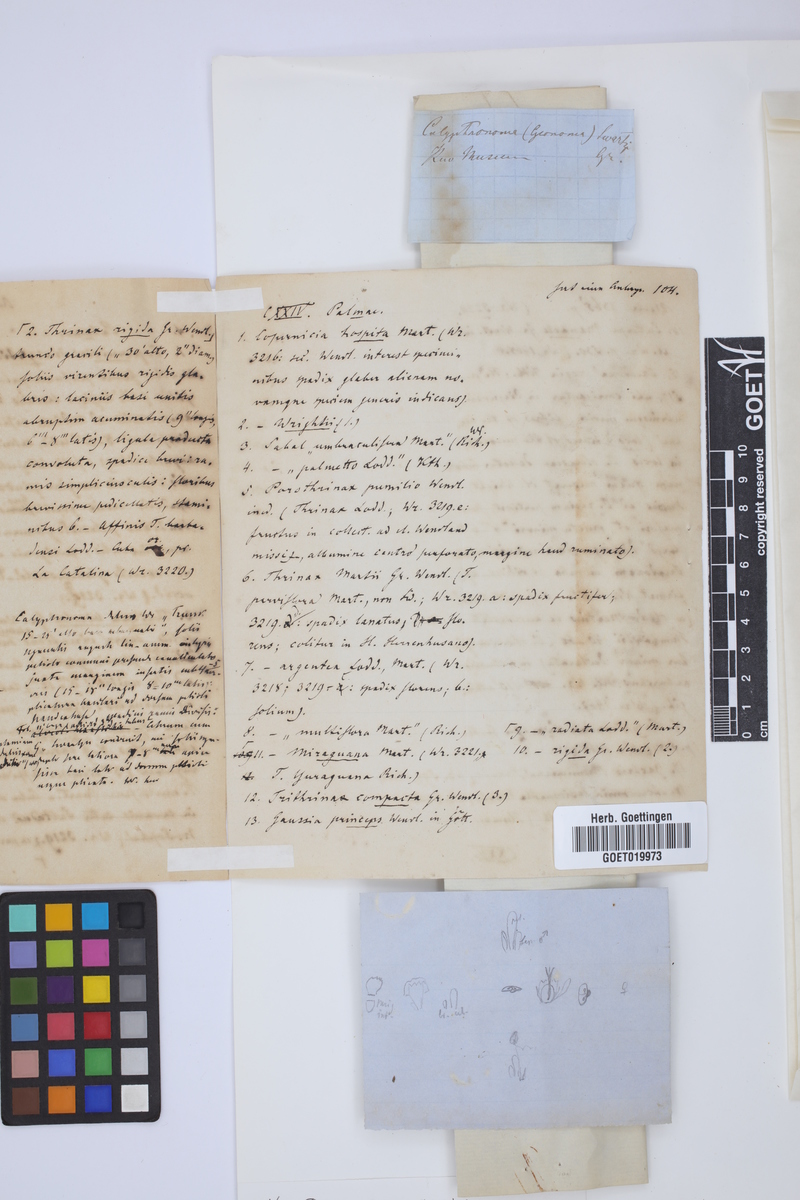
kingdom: Plantae
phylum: Tracheophyta
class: Liliopsida
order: Arecales
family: Arecaceae
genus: Calyptronoma
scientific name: Calyptronoma plumeriana
